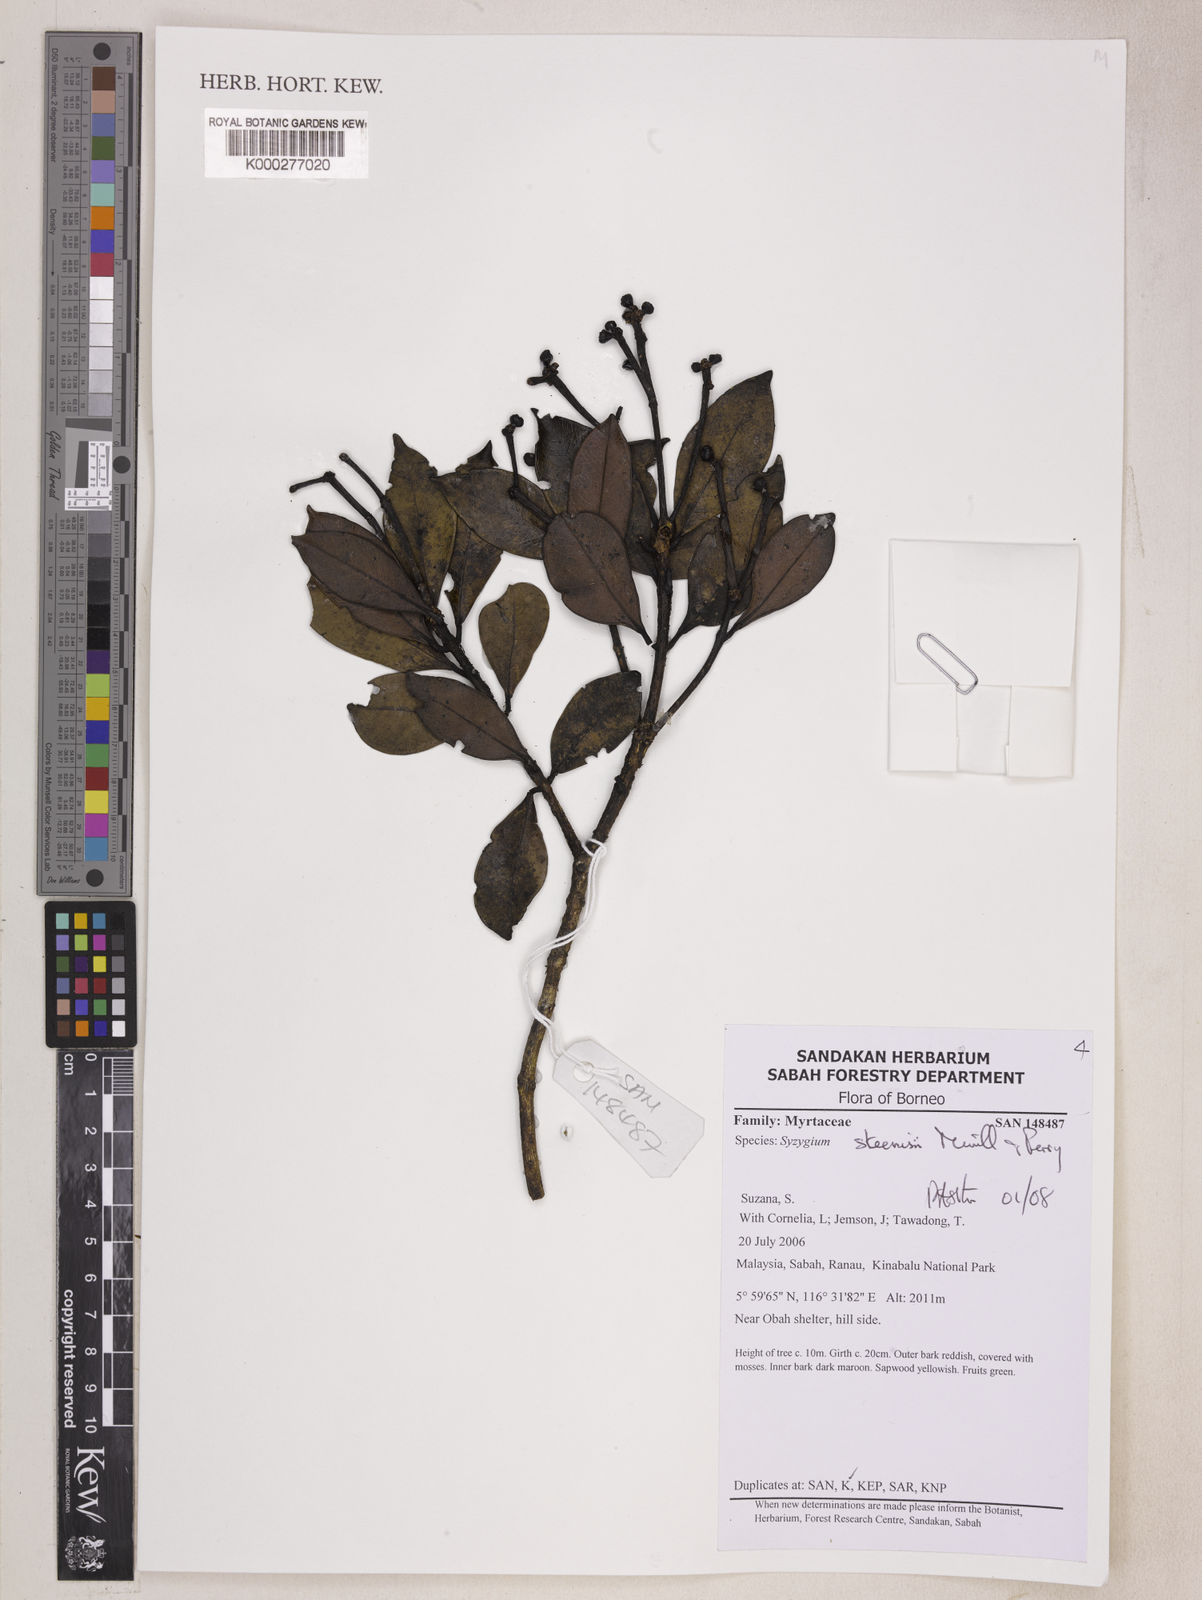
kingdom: Plantae
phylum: Tracheophyta
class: Magnoliopsida
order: Myrtales
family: Myrtaceae
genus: Syzygium
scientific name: Syzygium steenisii
